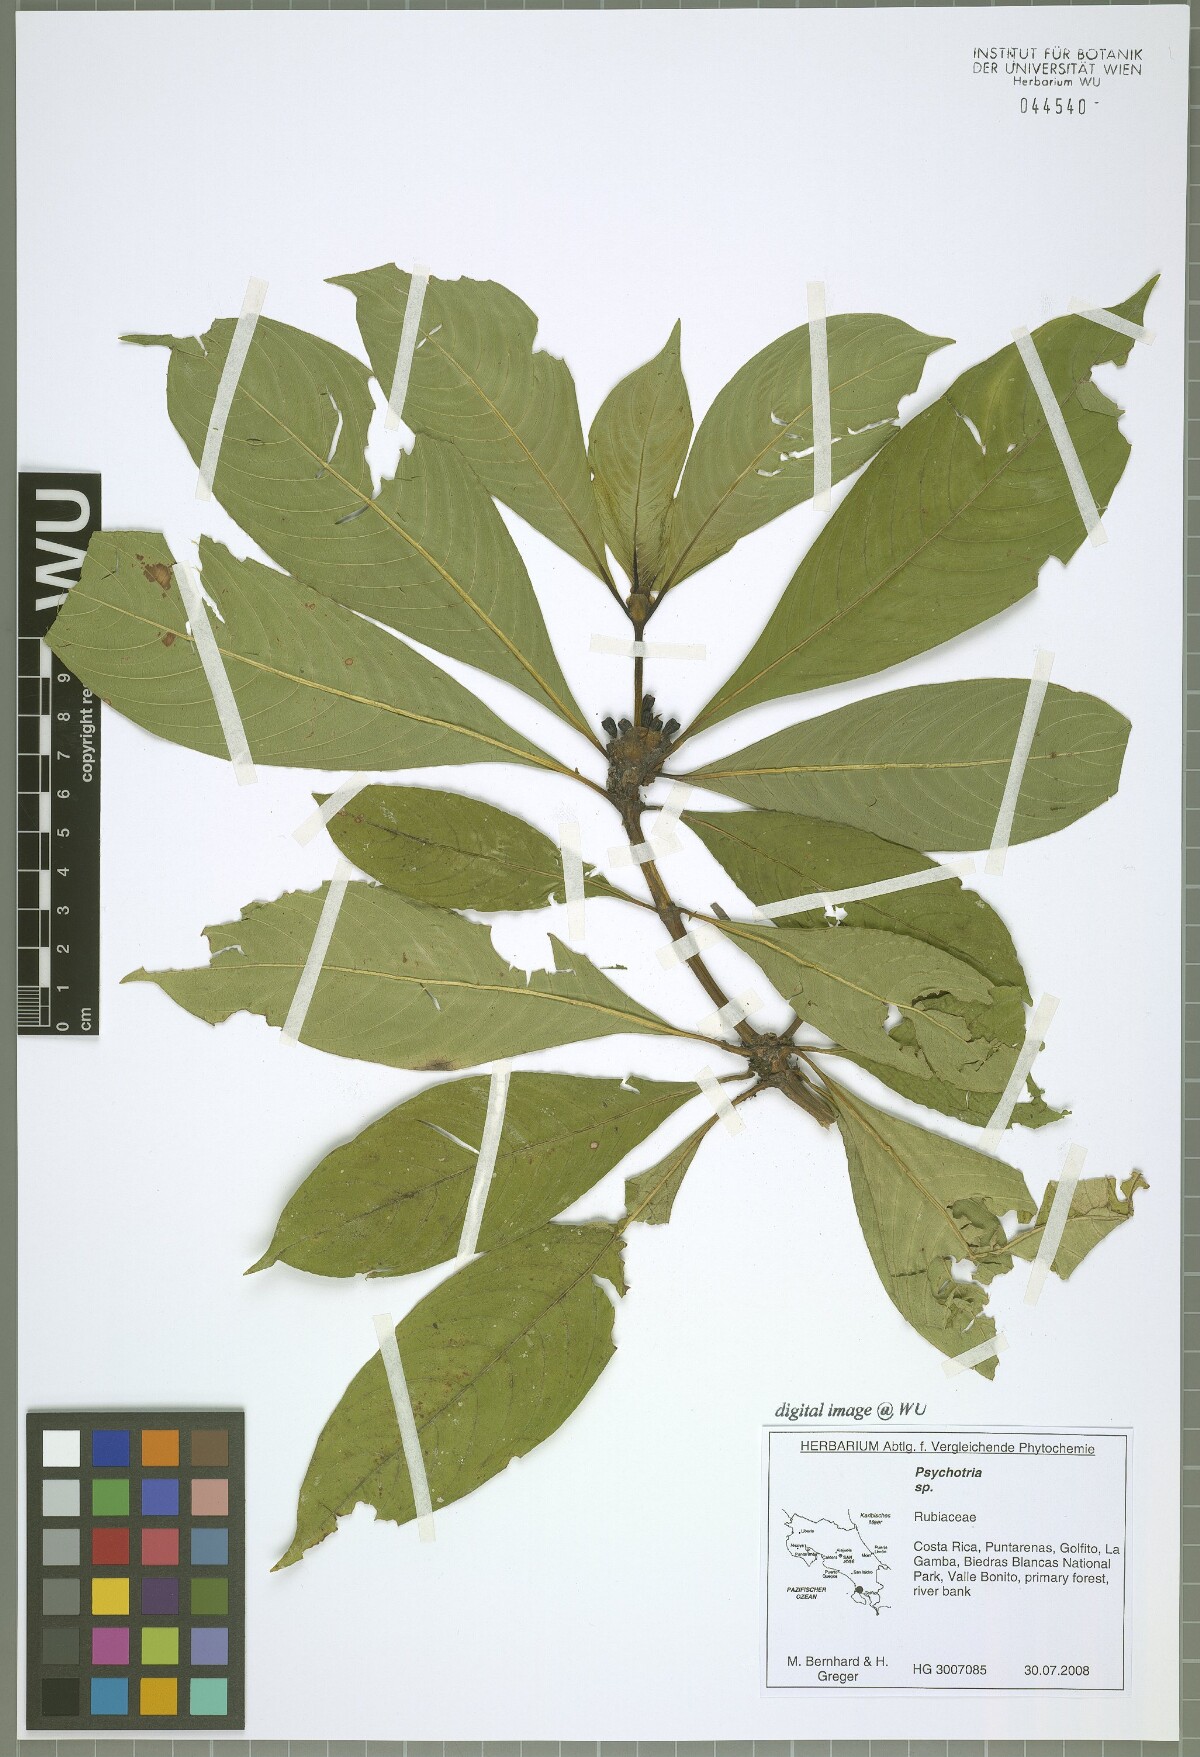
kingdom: Plantae
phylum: Tracheophyta
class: Magnoliopsida
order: Gentianales
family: Rubiaceae
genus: Palicourea
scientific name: Palicourea pseudaxillaris
